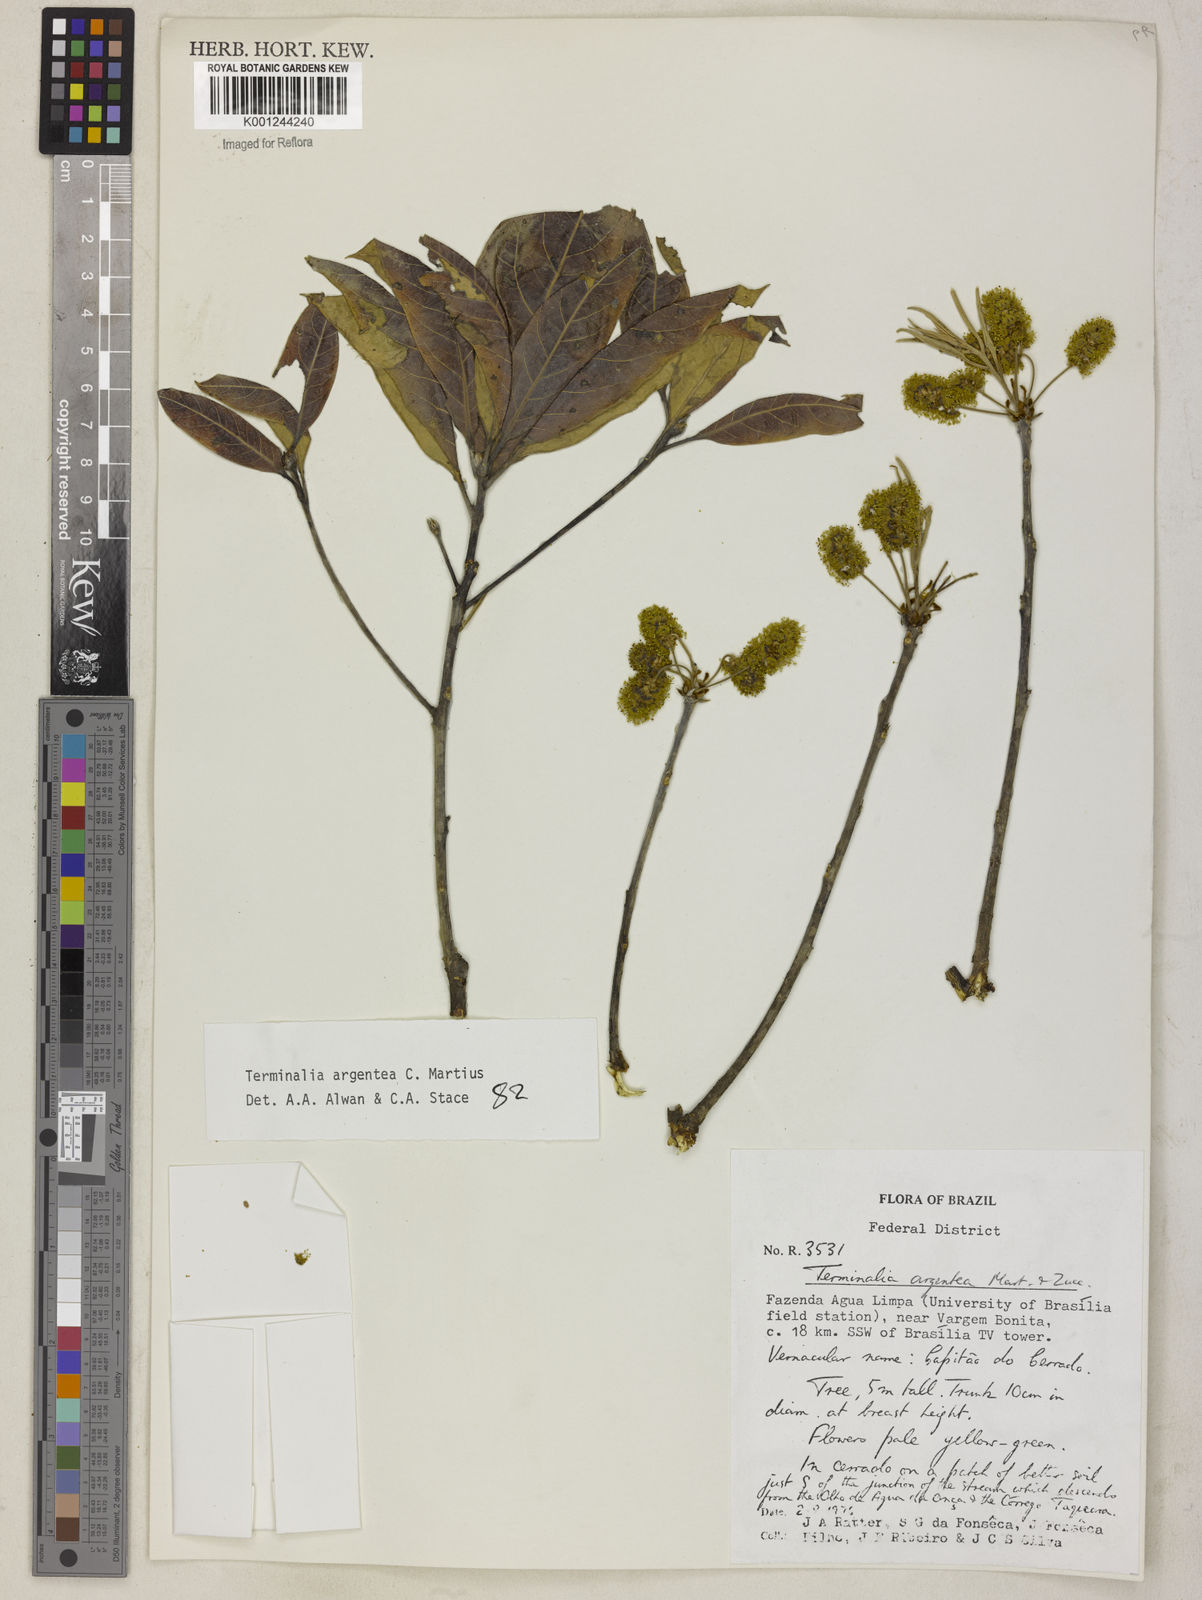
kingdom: Plantae
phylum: Tracheophyta
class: Magnoliopsida
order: Myrtales
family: Combretaceae
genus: Terminalia
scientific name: Terminalia argentea
